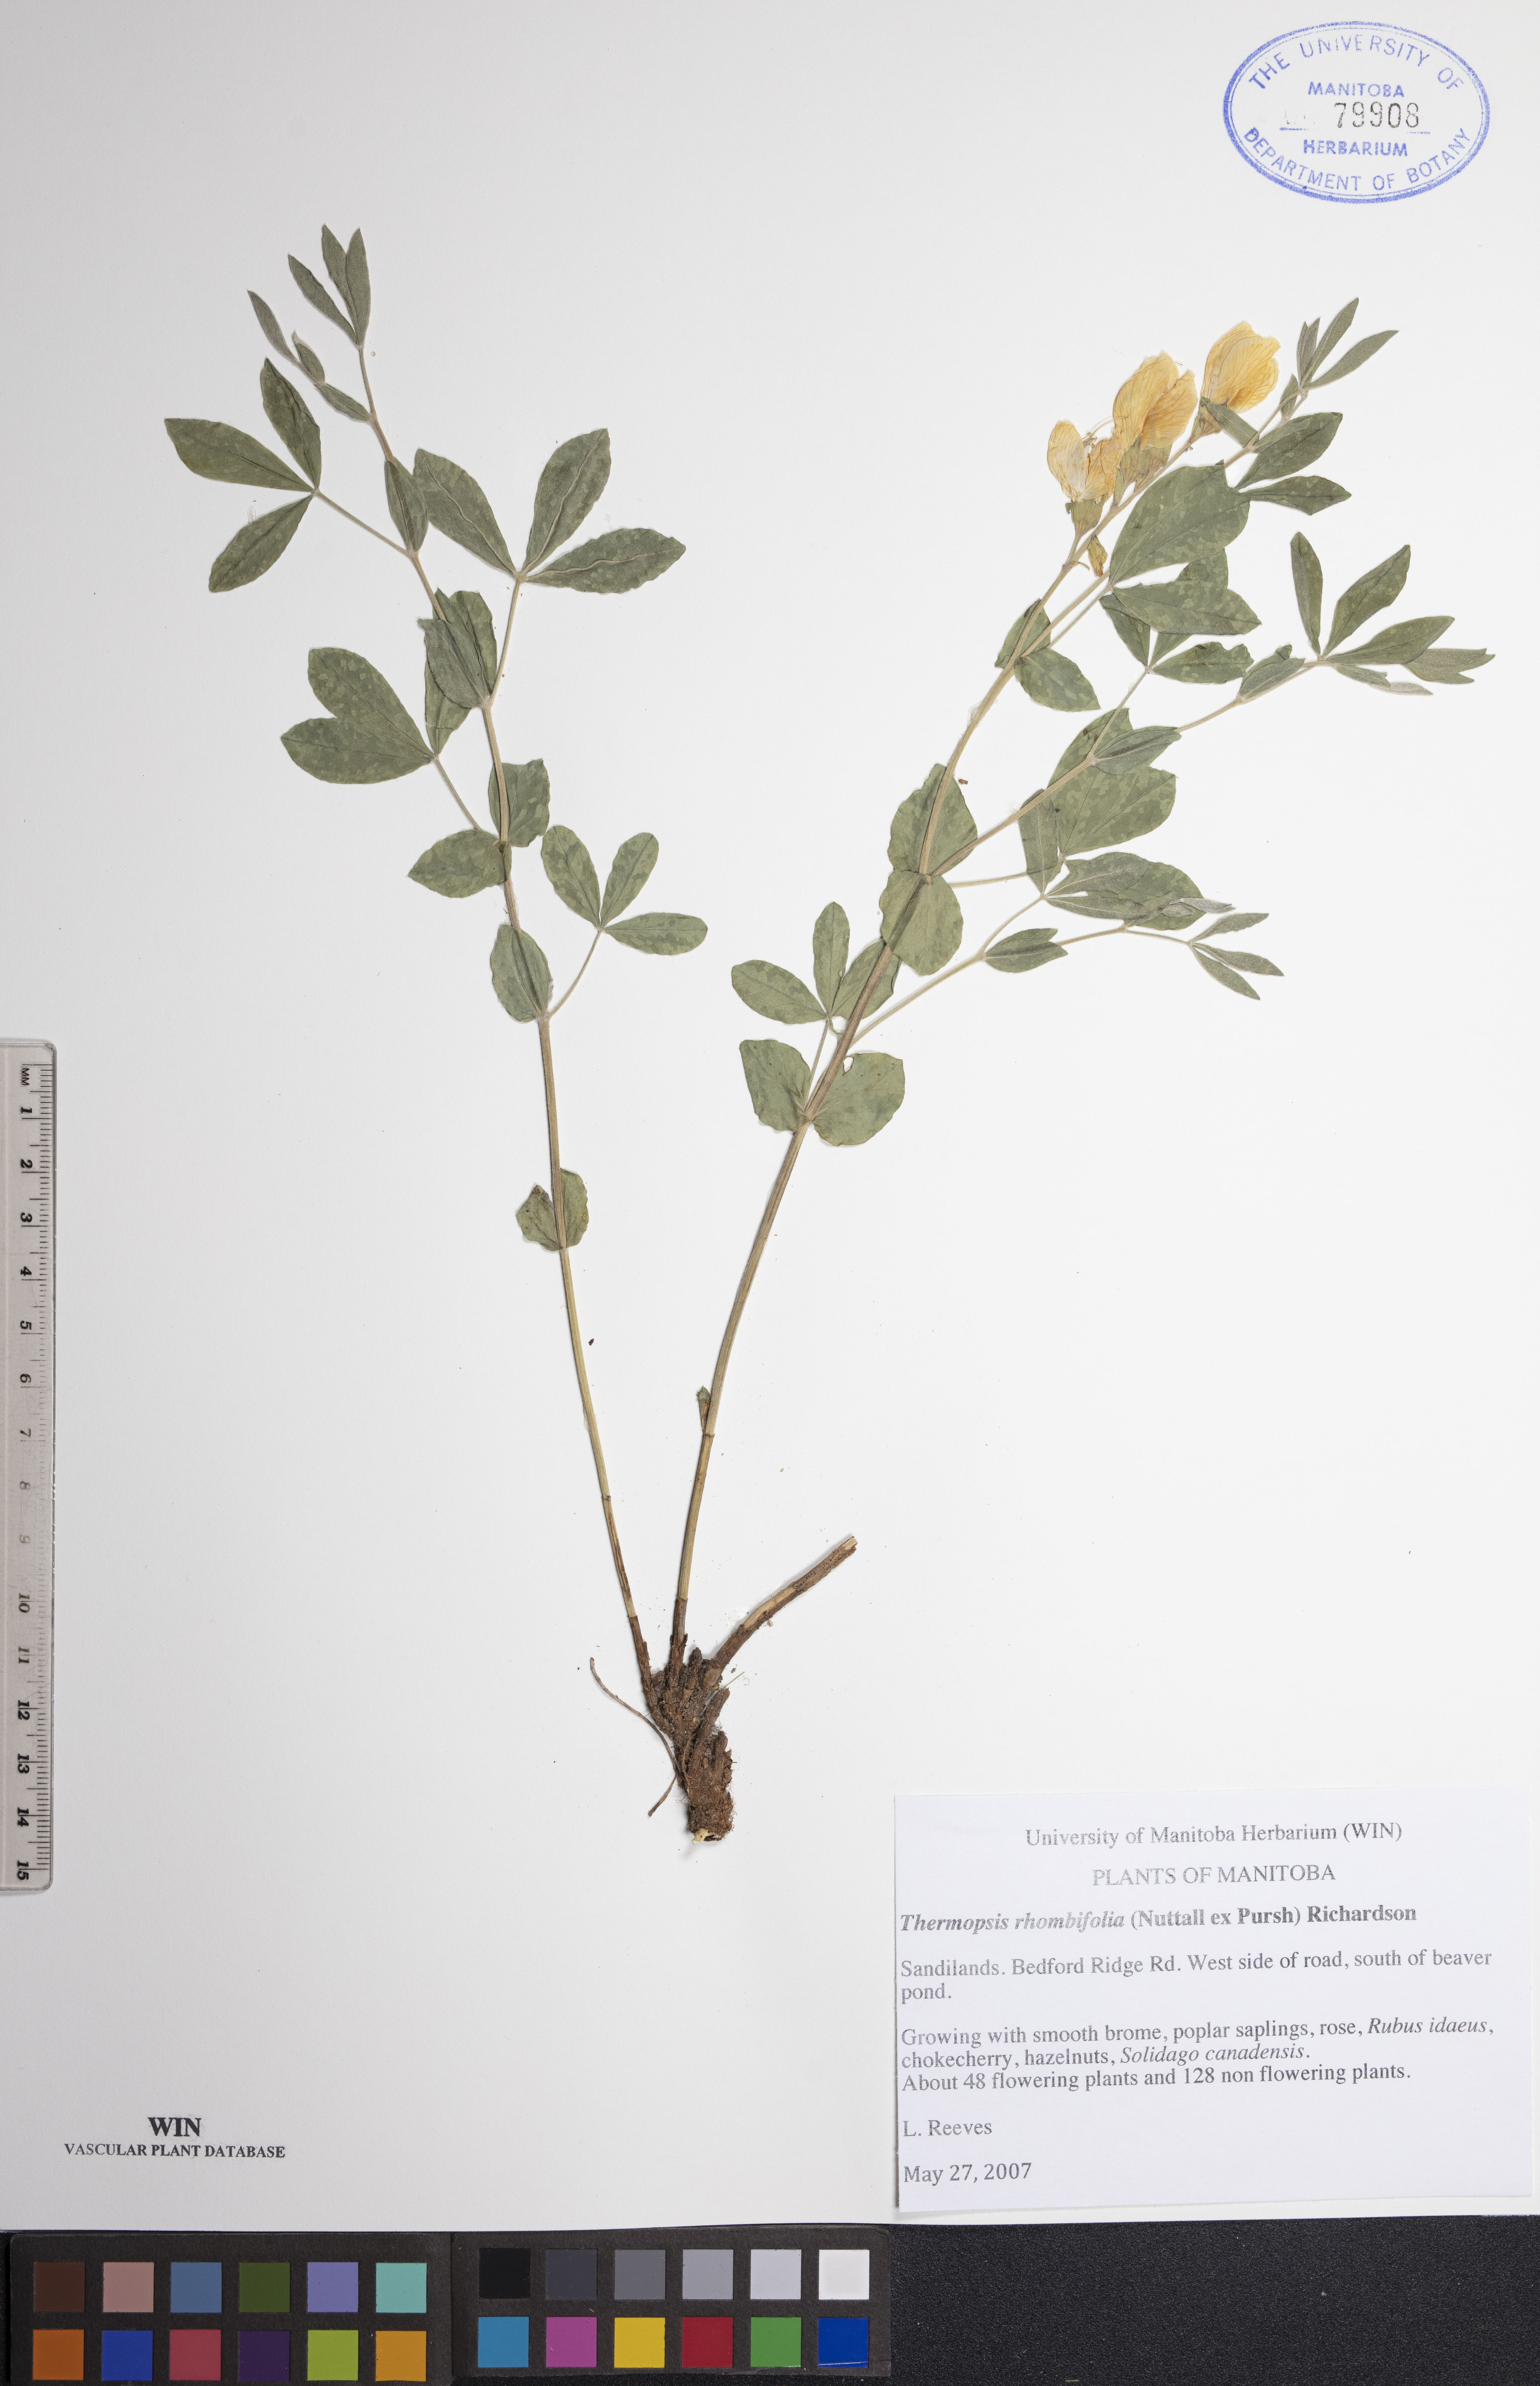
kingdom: Plantae
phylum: Tracheophyta
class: Magnoliopsida
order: Fabales
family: Fabaceae
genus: Thermopsis
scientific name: Thermopsis rhombifolia
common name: Circle-pod-pea
